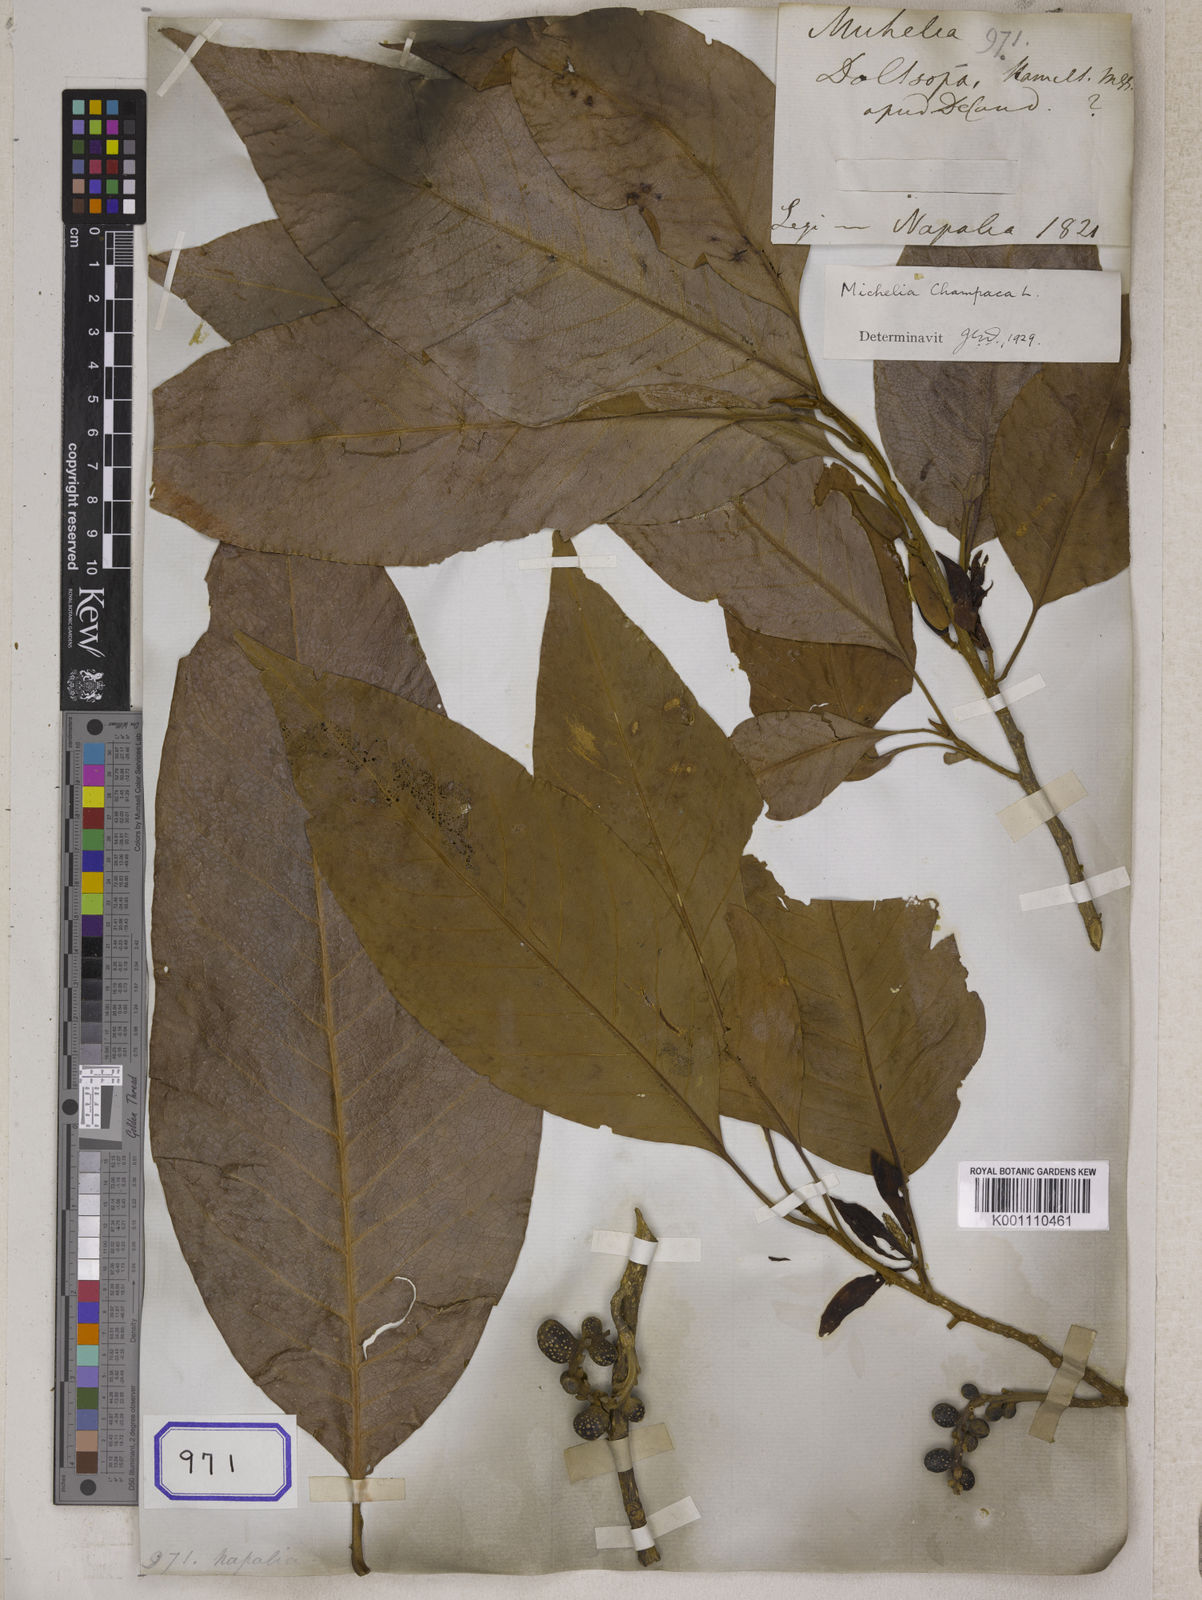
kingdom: Plantae
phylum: Tracheophyta
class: Magnoliopsida
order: Magnoliales
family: Magnoliaceae
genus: Michelia
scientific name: Michelia
